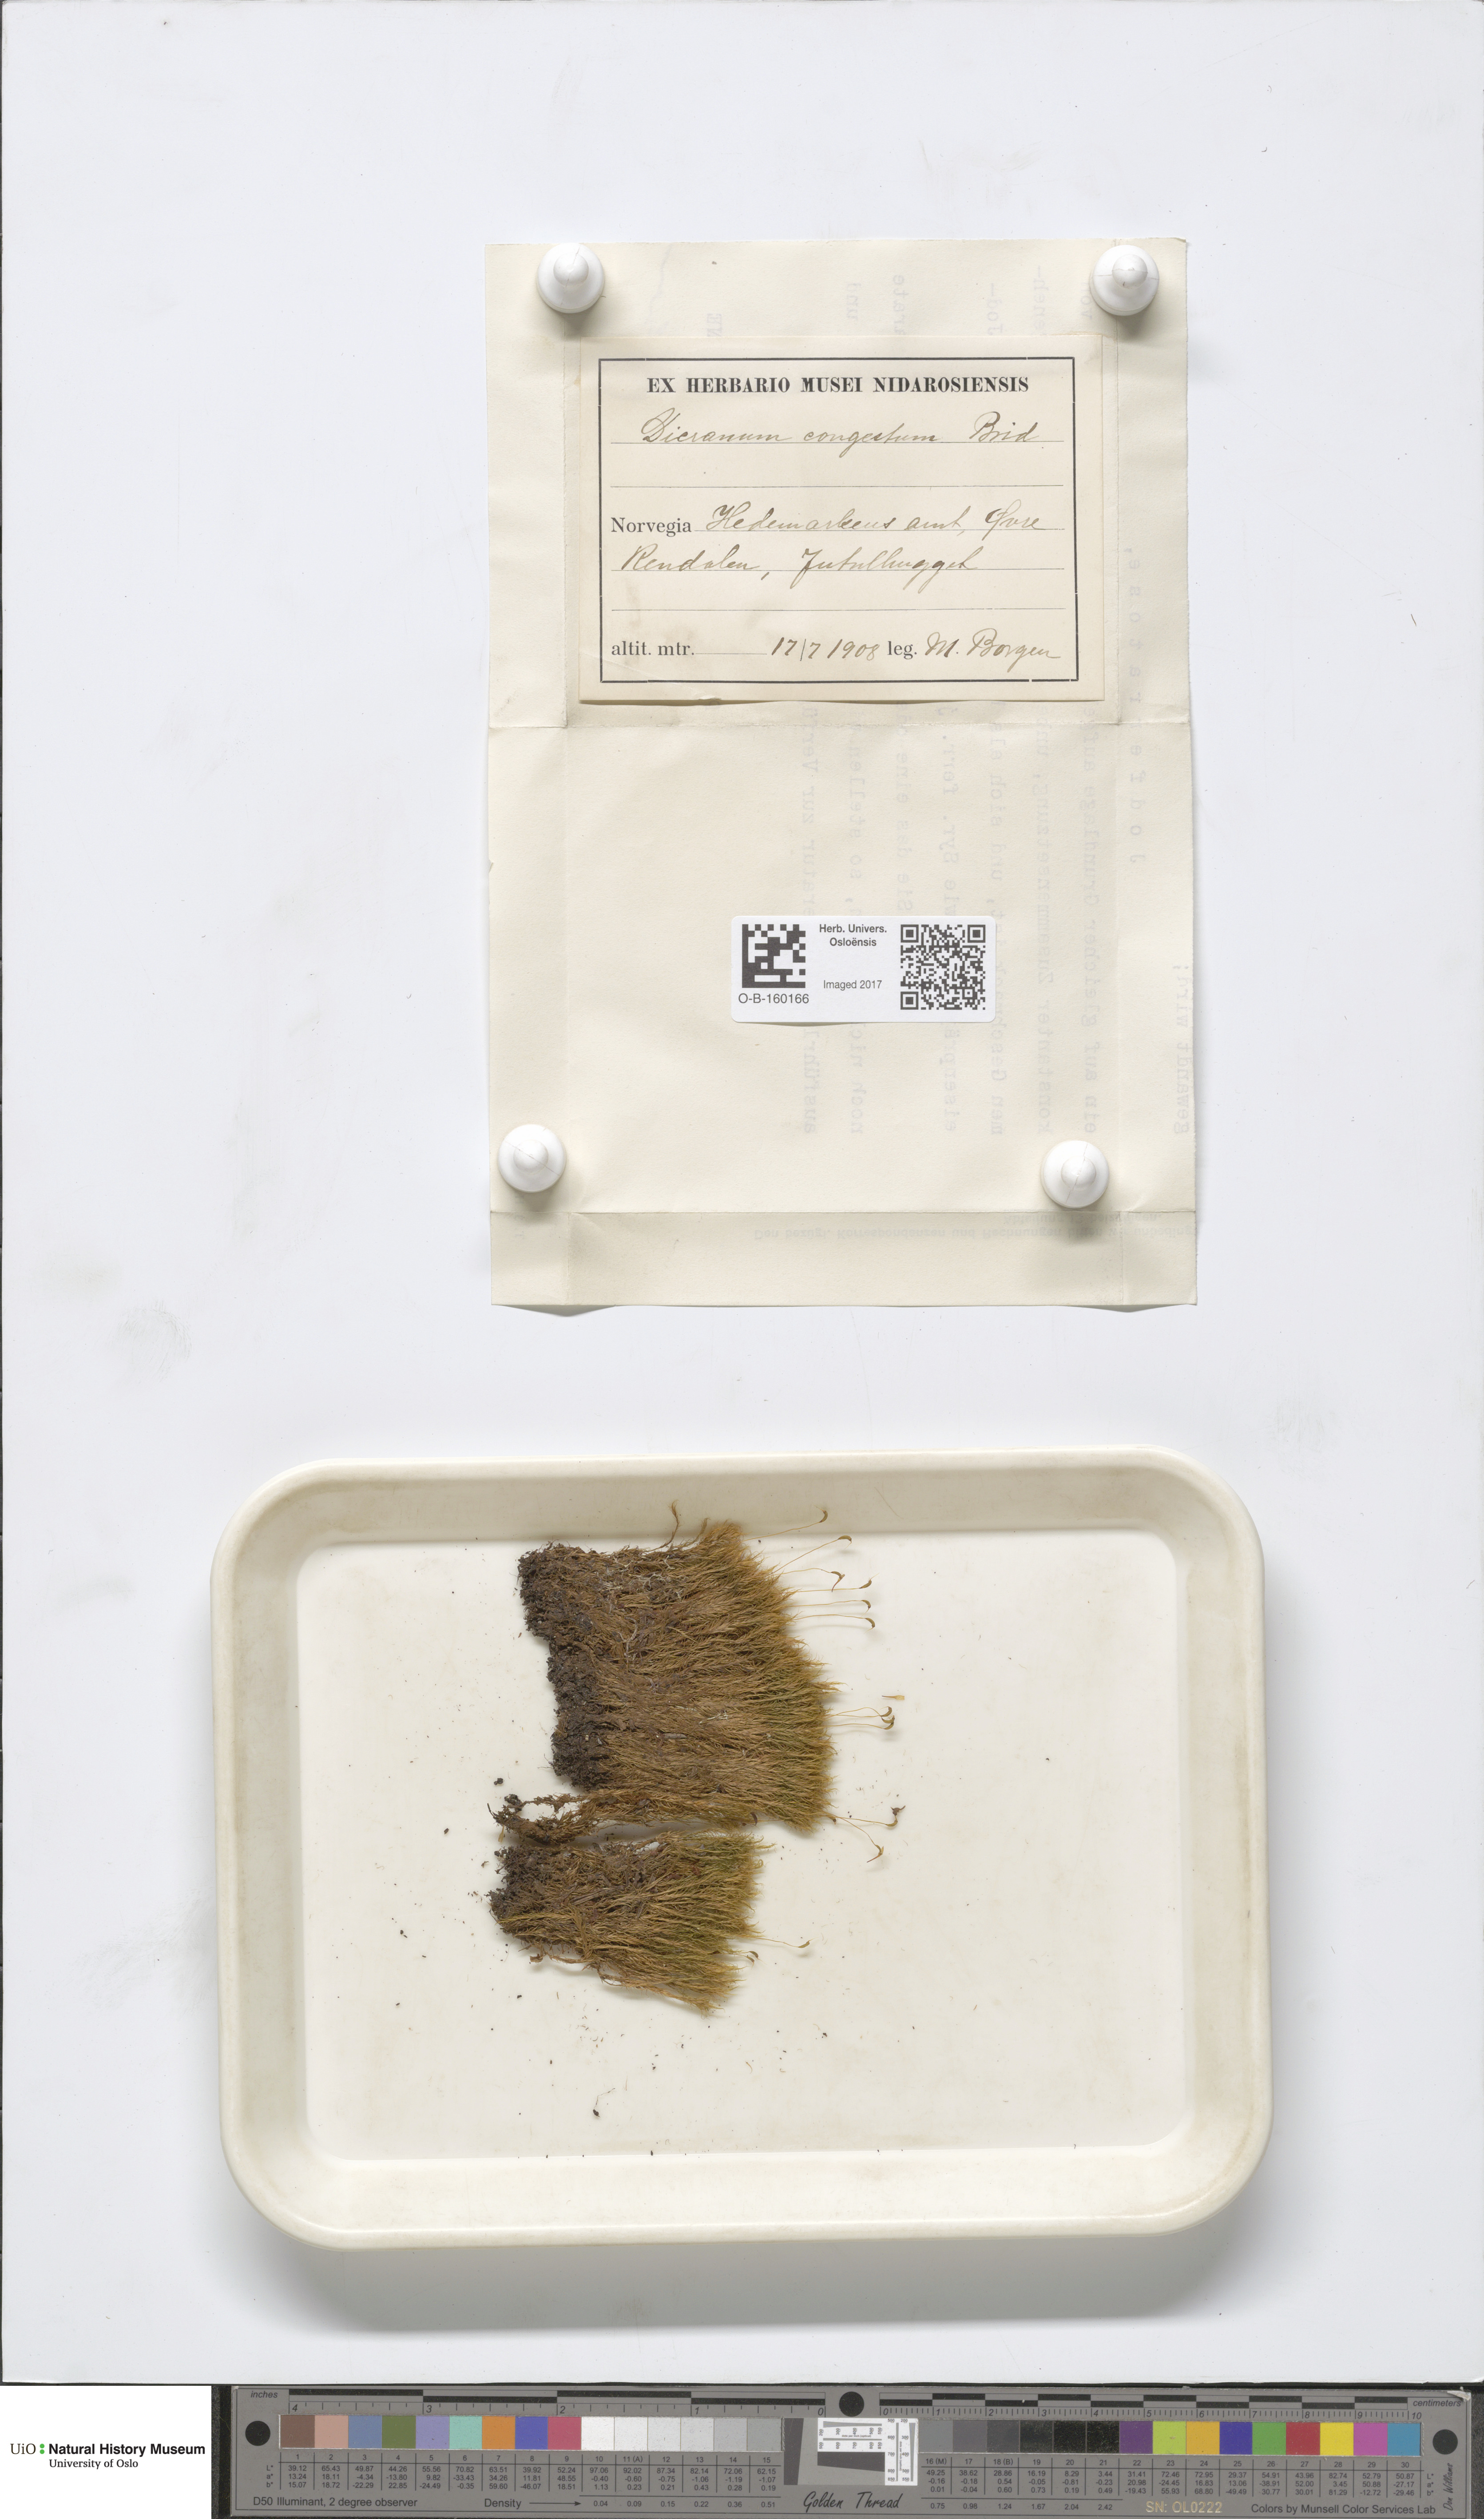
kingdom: Plantae
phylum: Bryophyta
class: Bryopsida
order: Dicranales
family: Dicranaceae
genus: Dicranum
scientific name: Dicranum flexicaule
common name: Bendy heron s-bill moss
